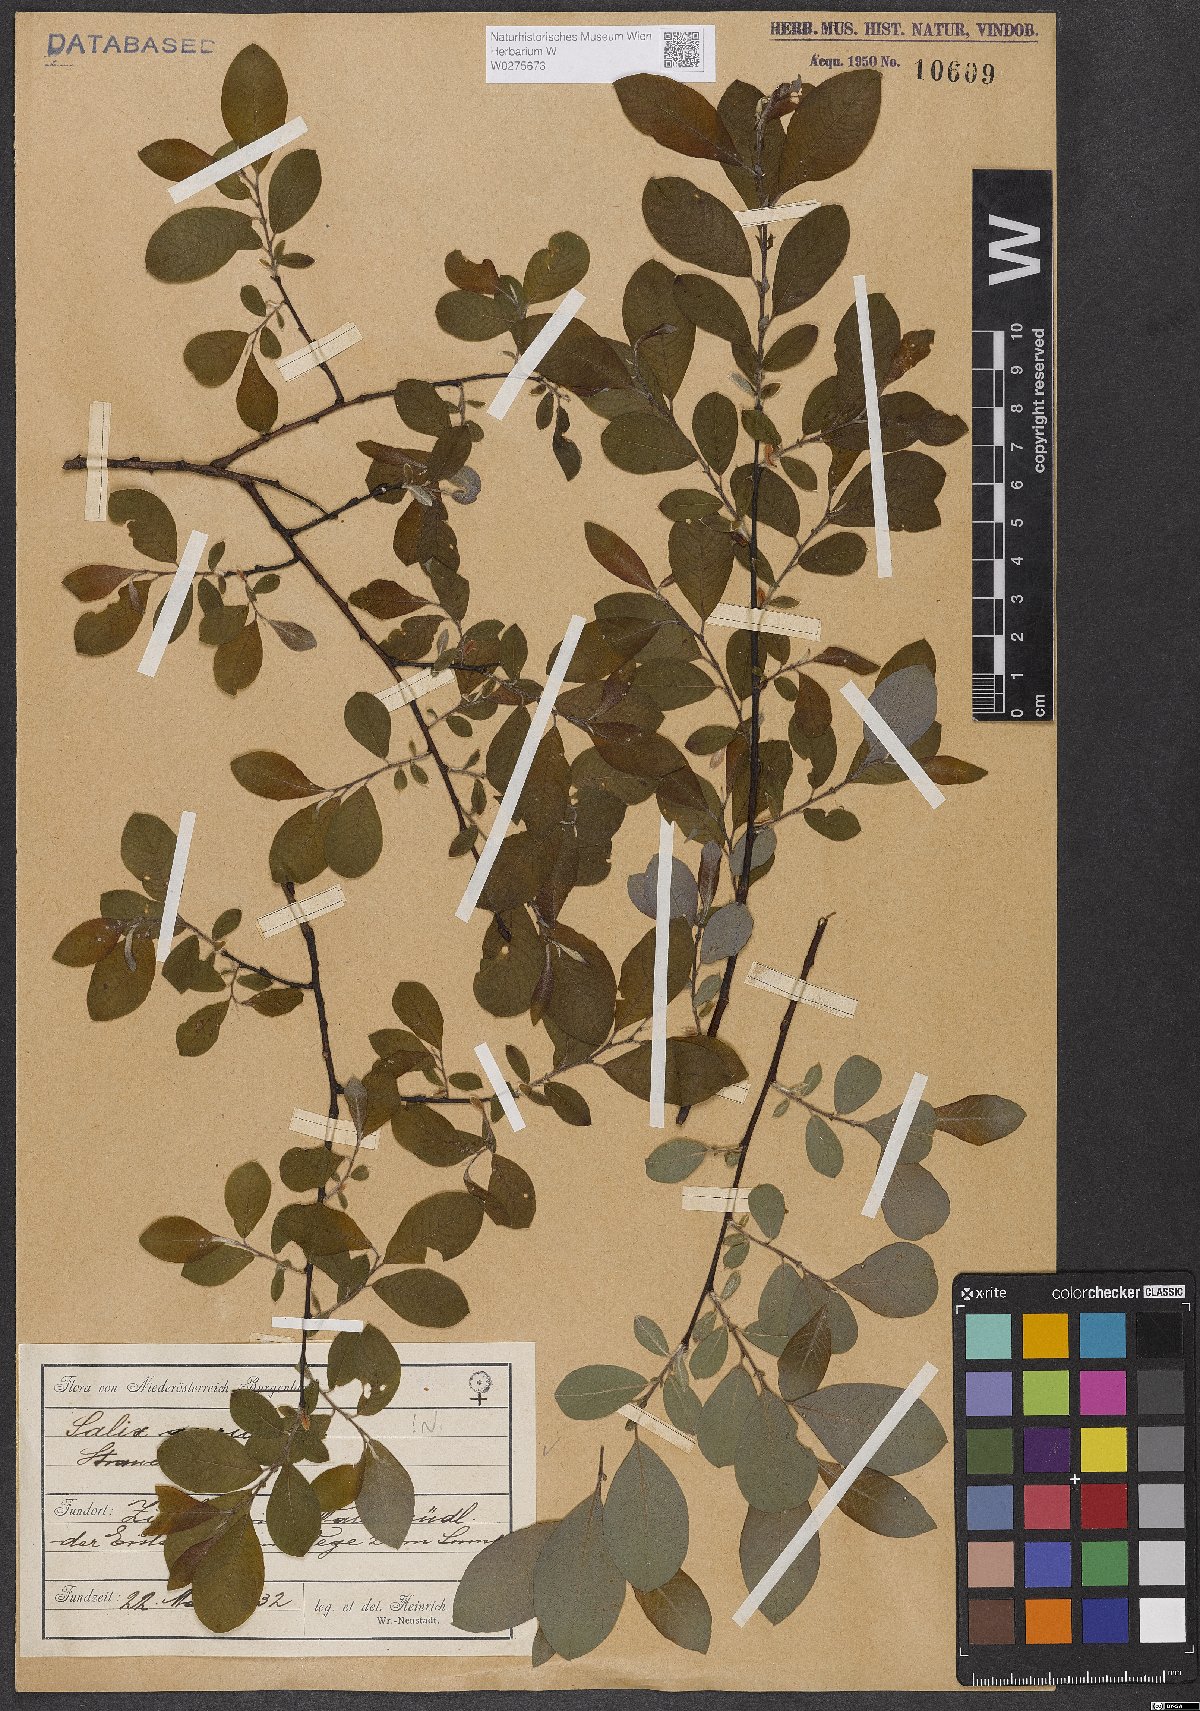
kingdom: Plantae
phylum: Tracheophyta
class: Magnoliopsida
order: Malpighiales
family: Salicaceae
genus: Salix
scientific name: Salix aurita
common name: Eared willow
